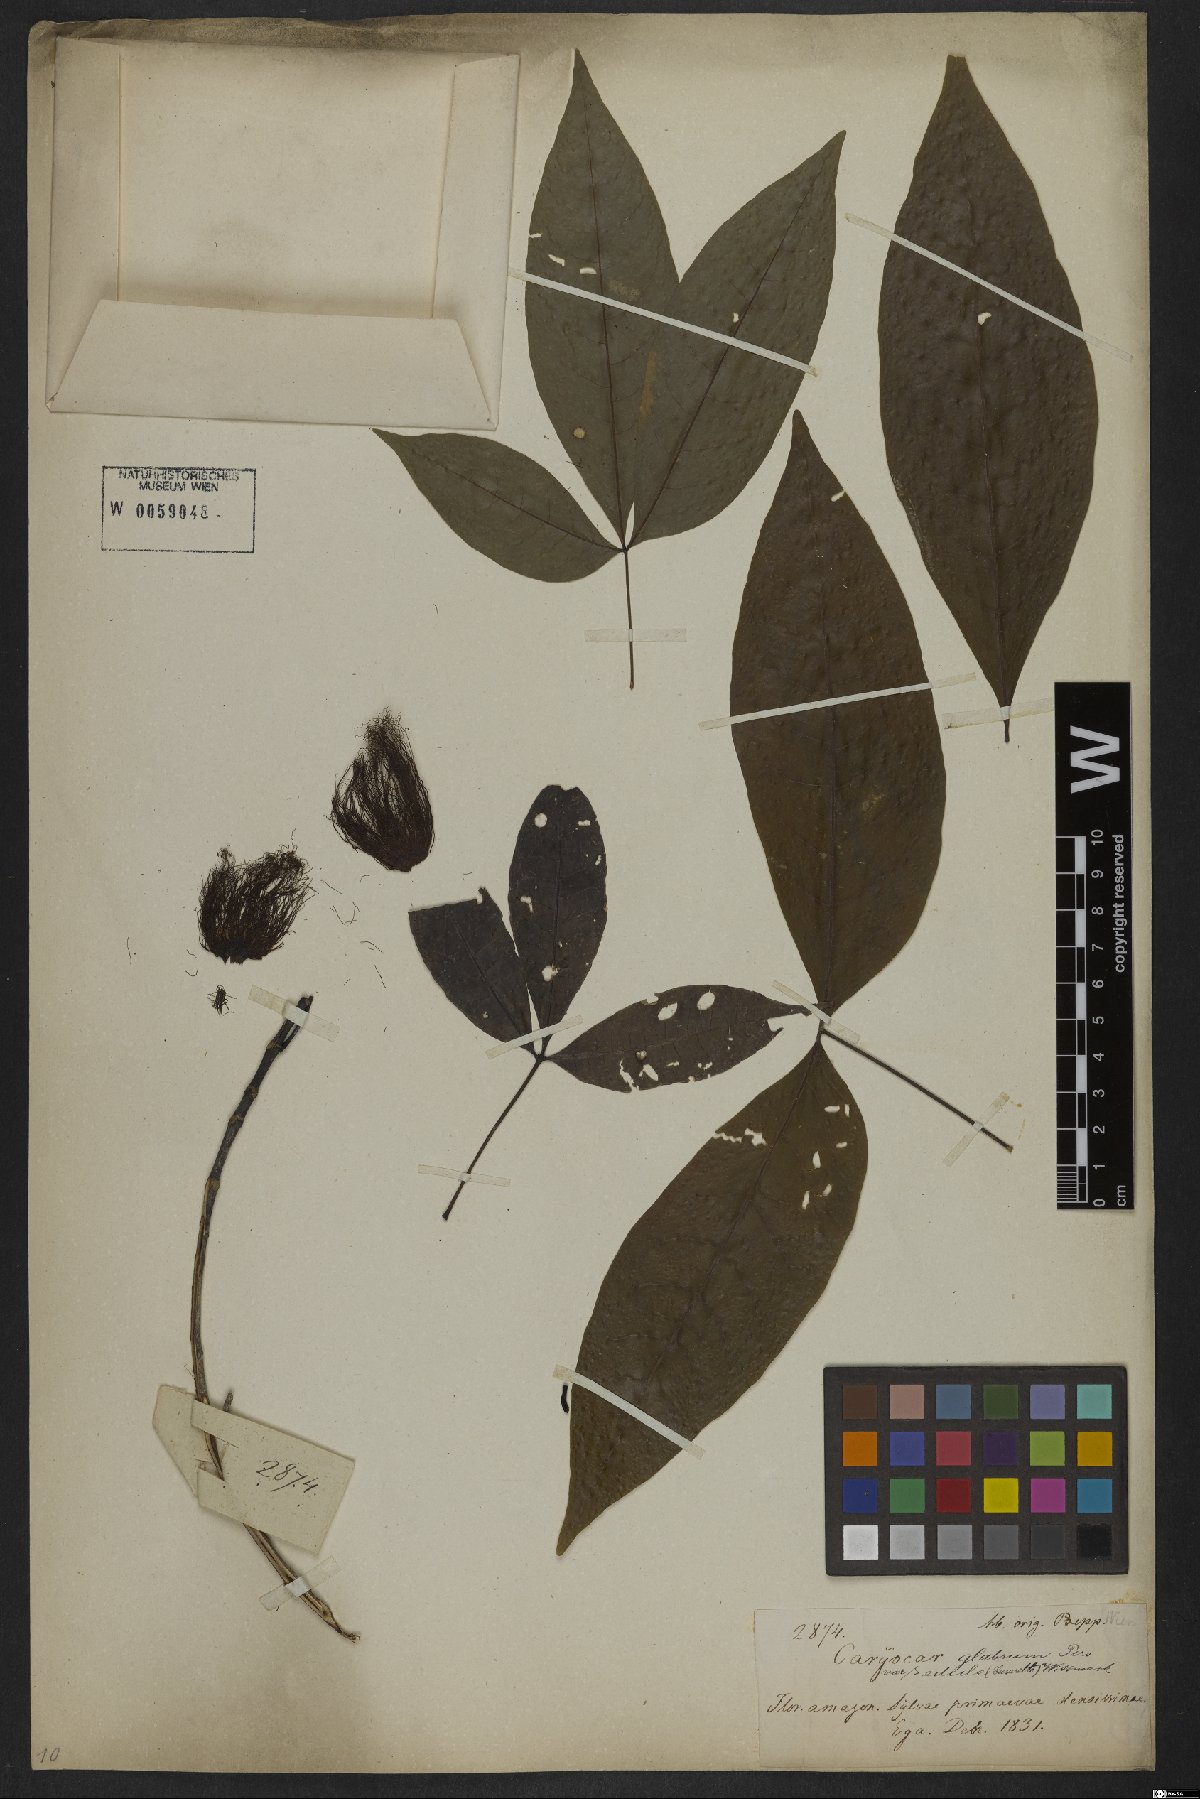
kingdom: Plantae
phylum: Tracheophyta
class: Magnoliopsida
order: Malpighiales
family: Caryocaraceae
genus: Caryocar
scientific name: Caryocar glabrum
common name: Bat's souari
